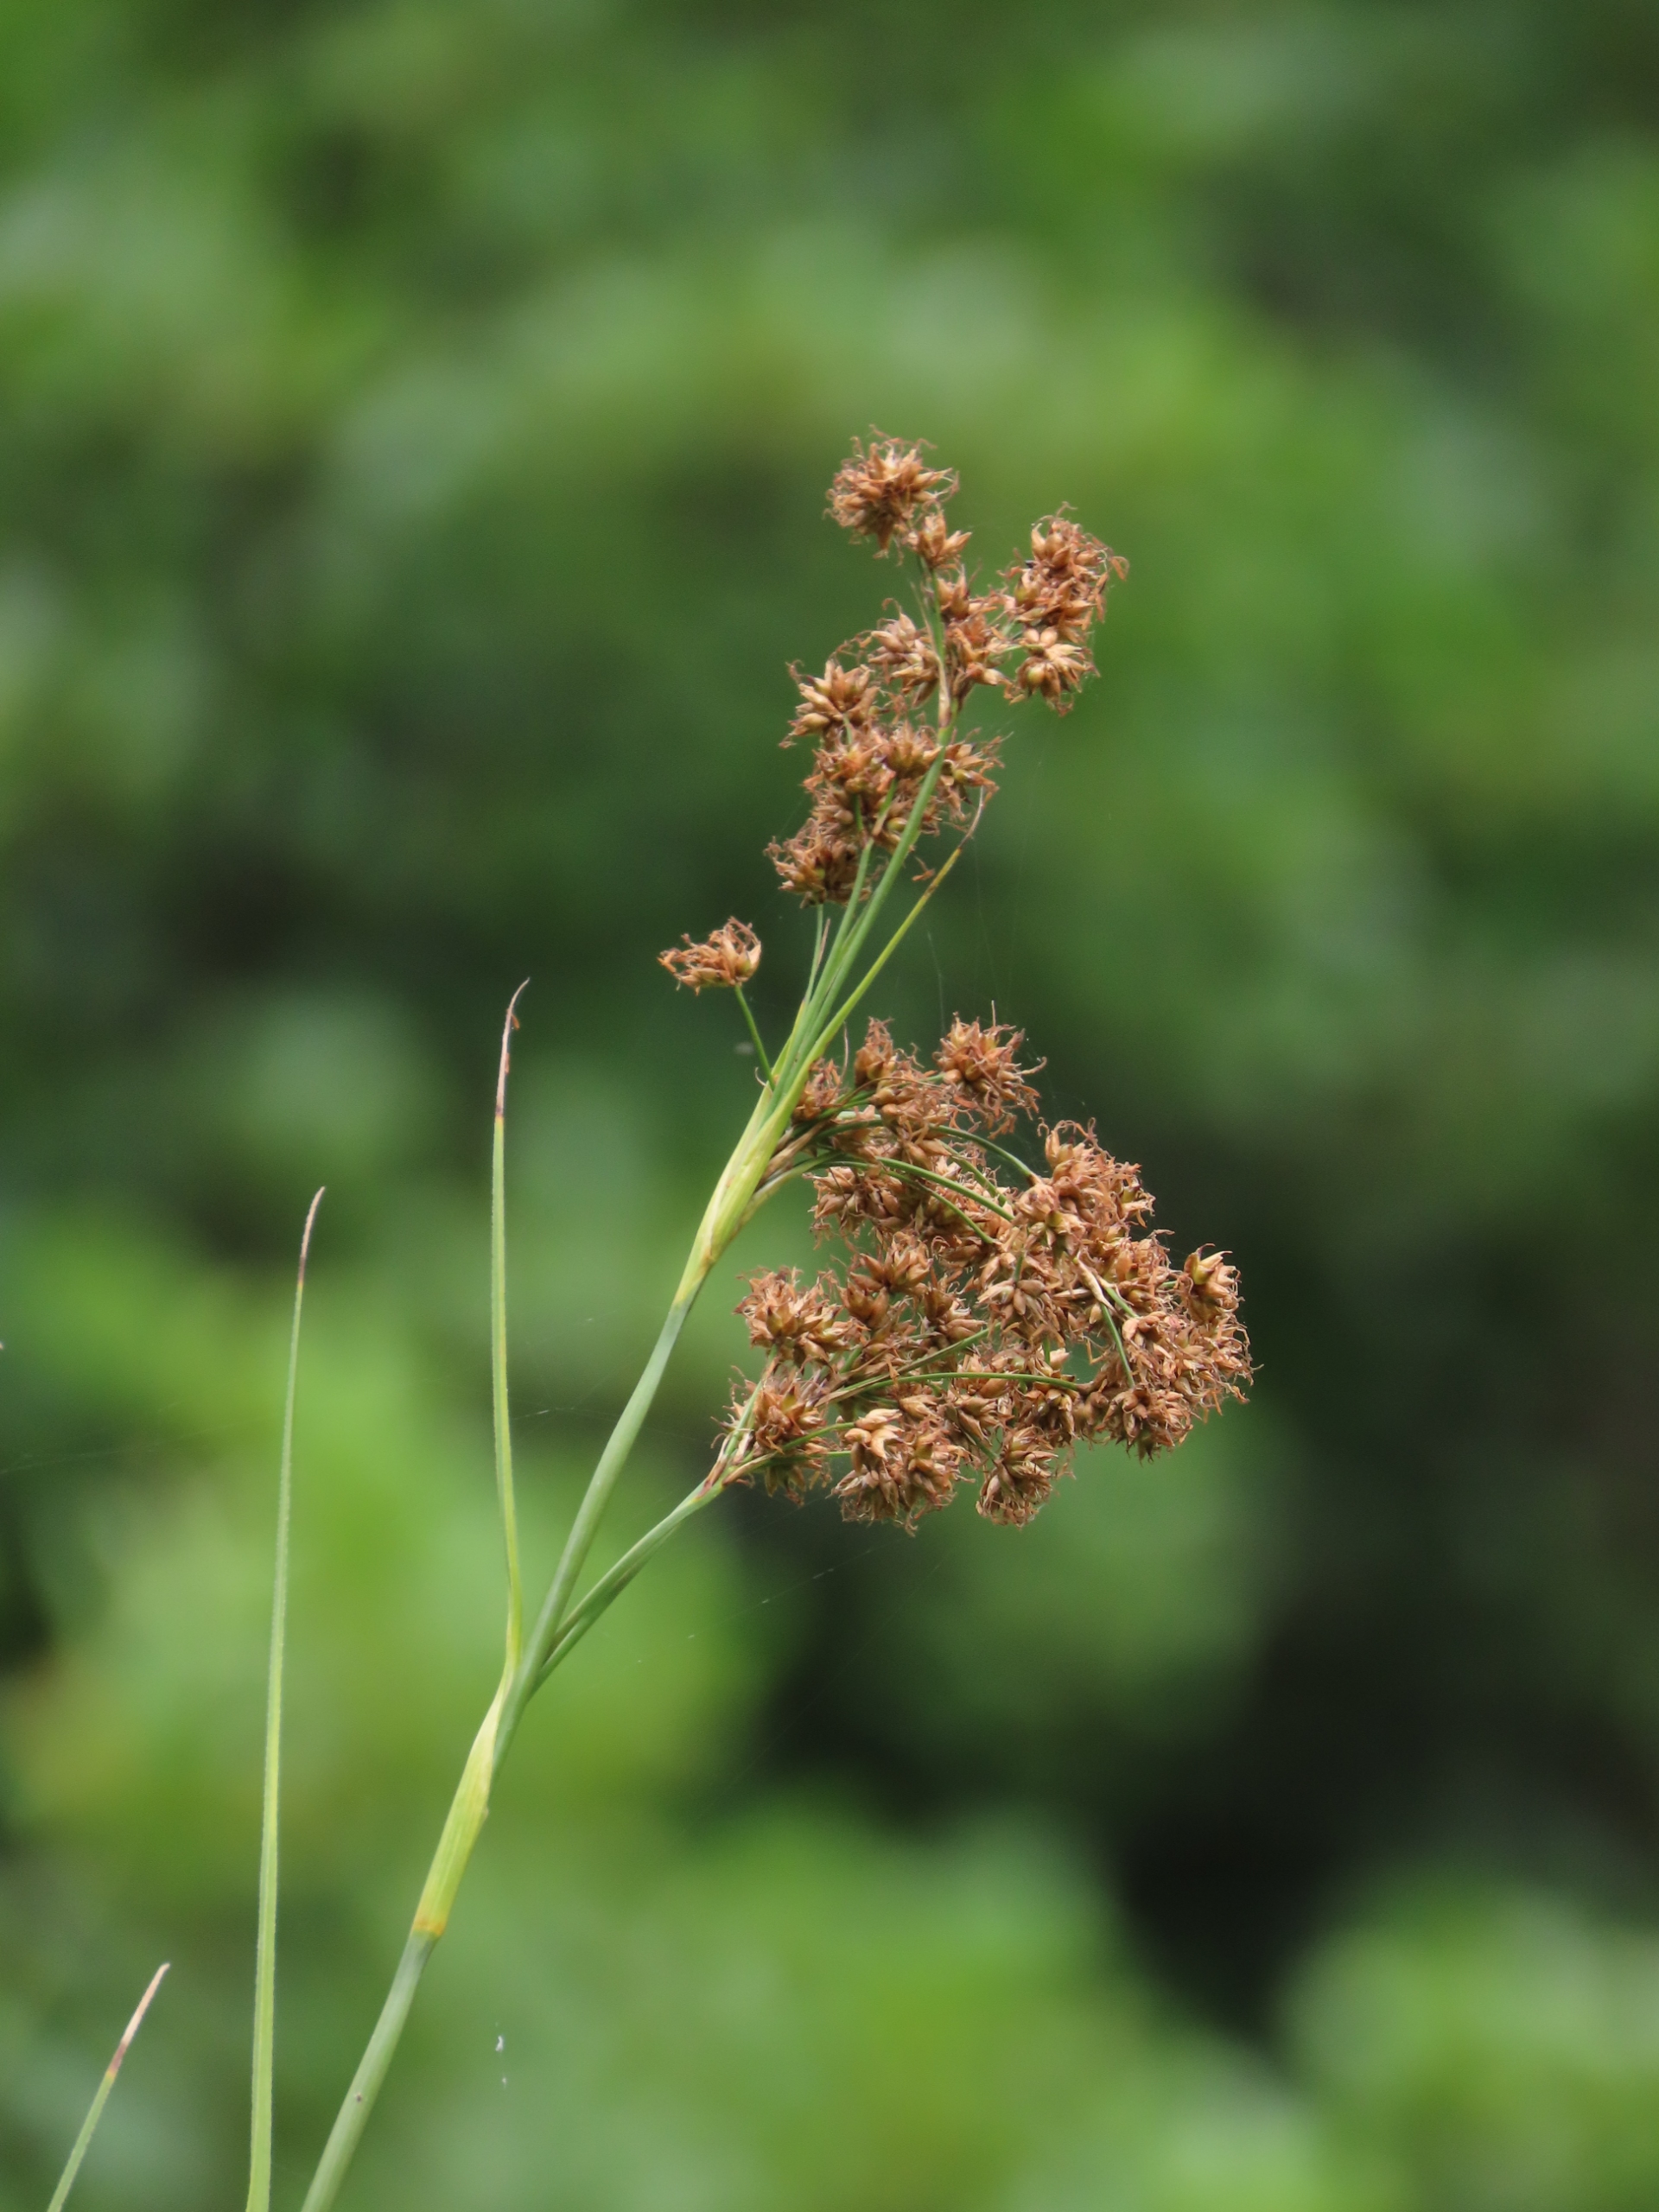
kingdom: Plantae
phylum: Tracheophyta
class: Liliopsida
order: Poales
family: Cyperaceae
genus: Cladium
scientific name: Cladium mariscus
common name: Hvas avneknippe
